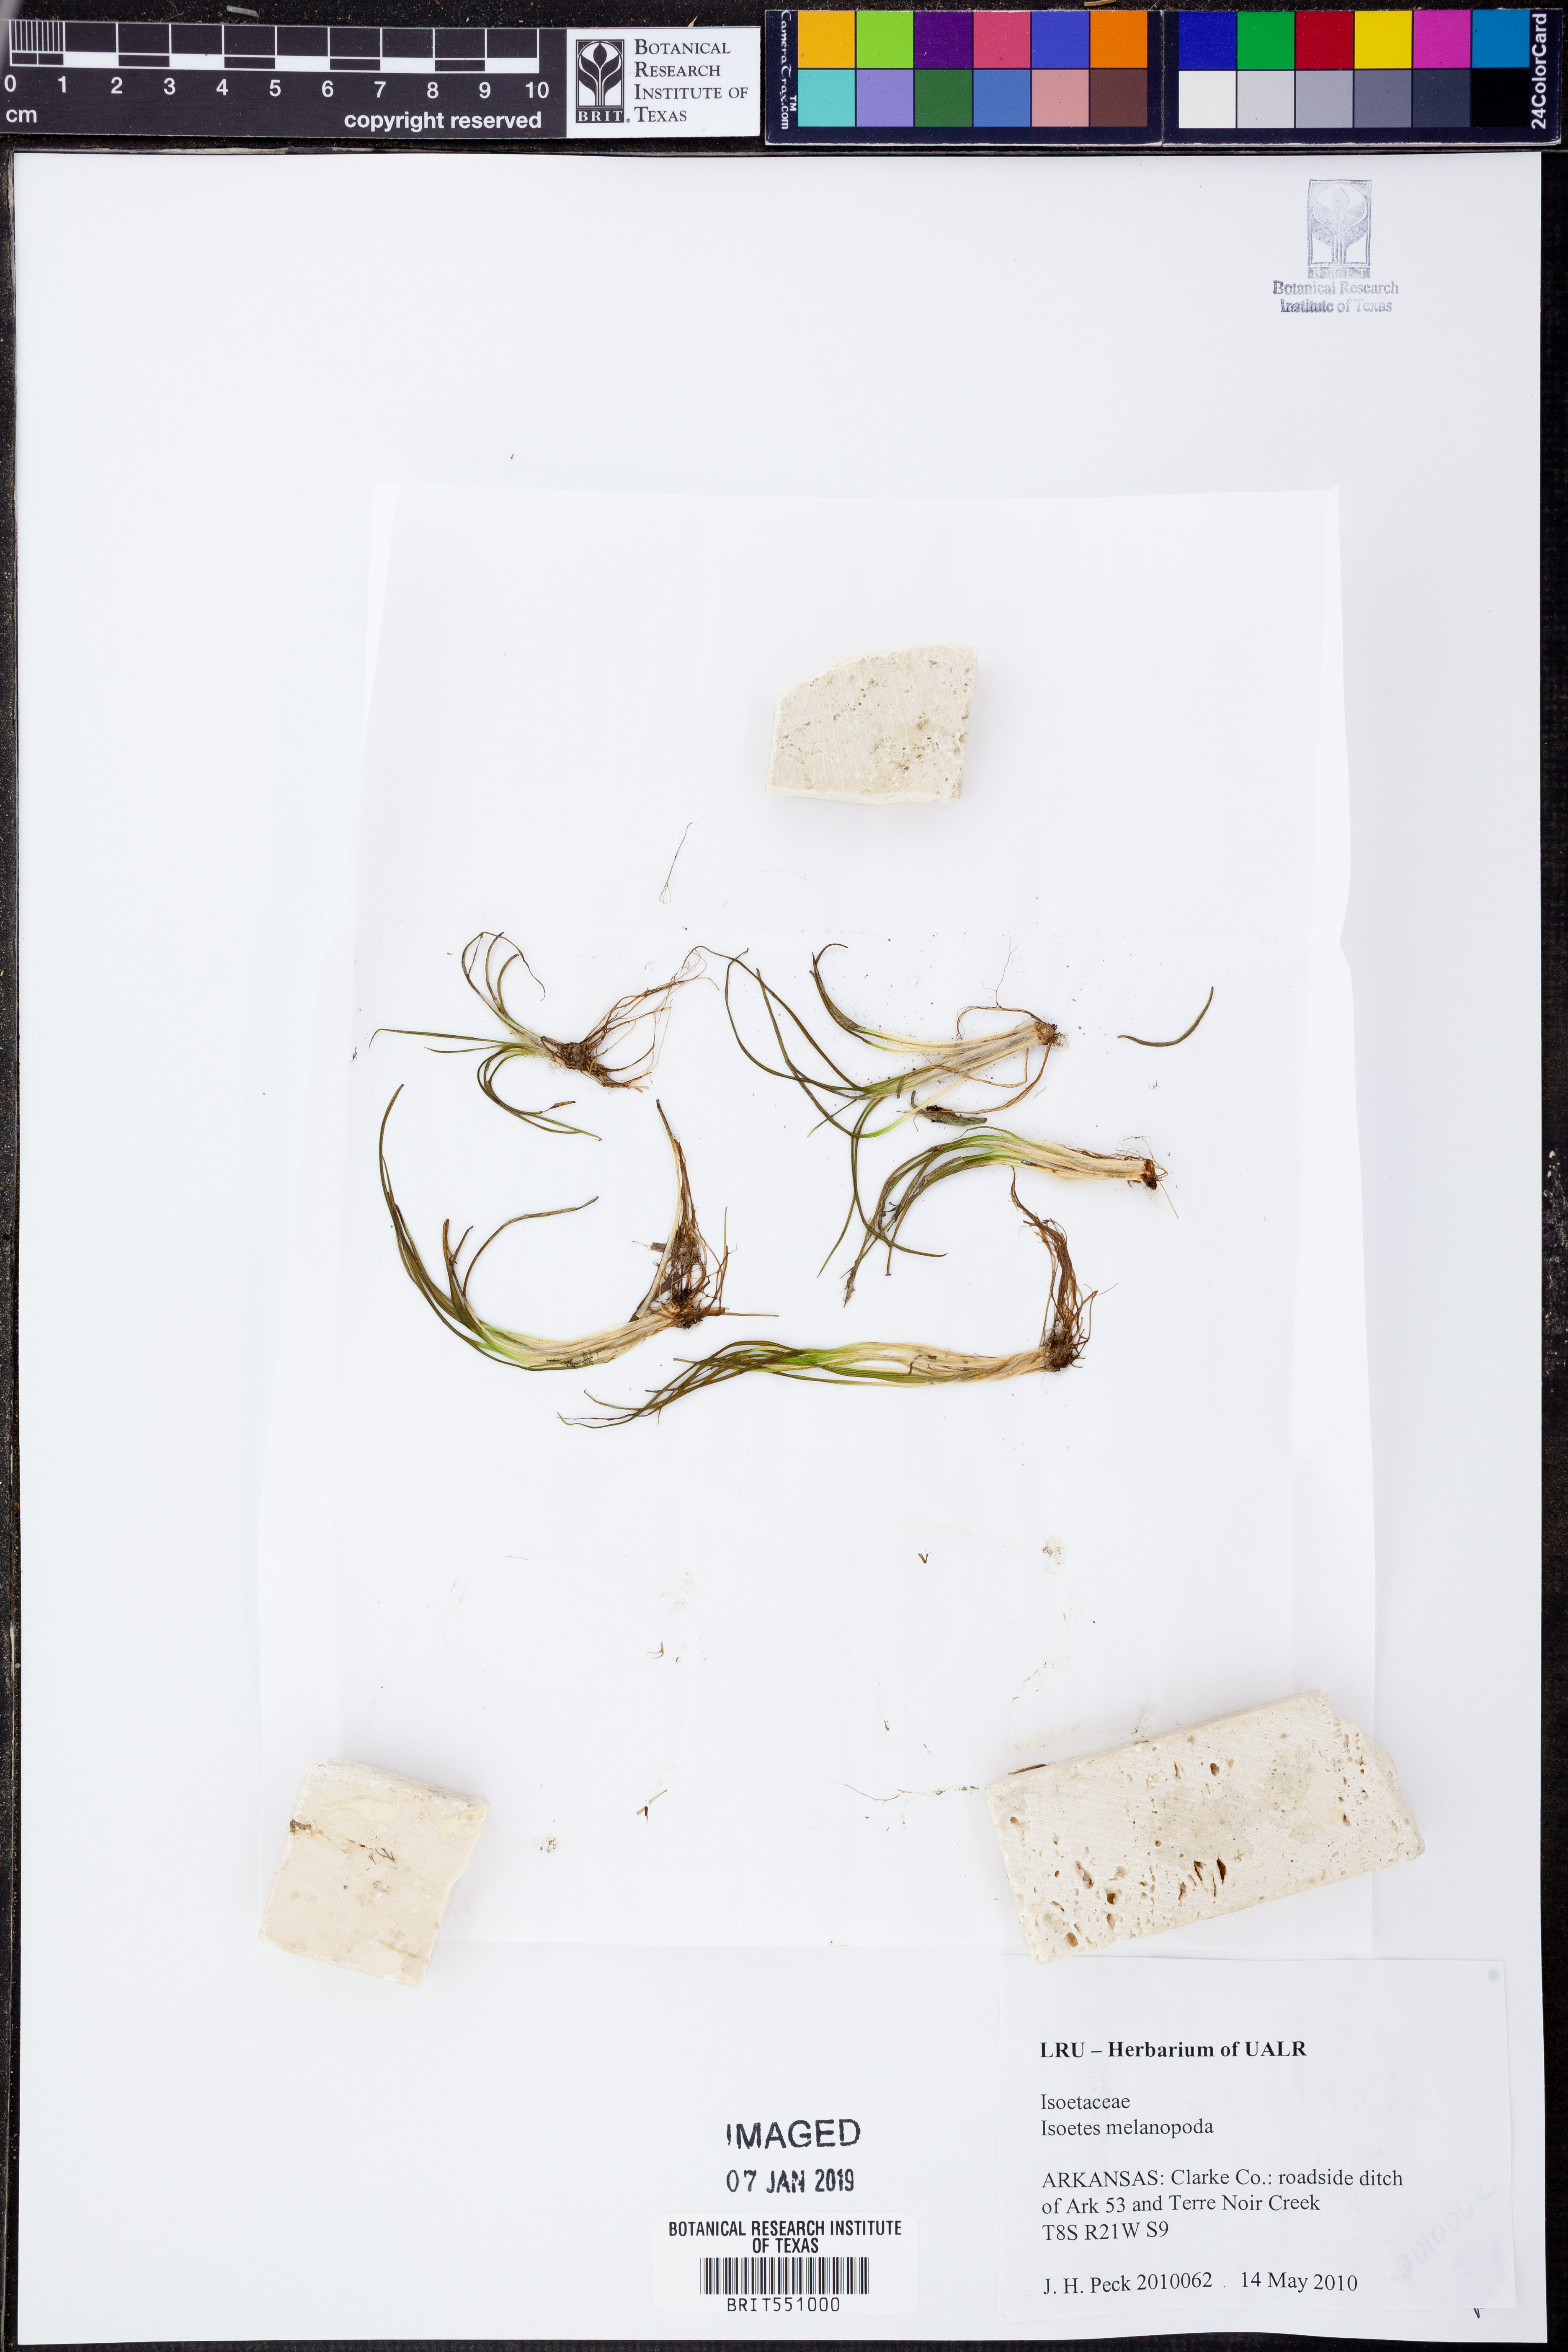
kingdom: Plantae
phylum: Tracheophyta
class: Lycopodiopsida
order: Isoetales
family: Isoetaceae
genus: Isoetes
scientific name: Isoetes melanopoda
